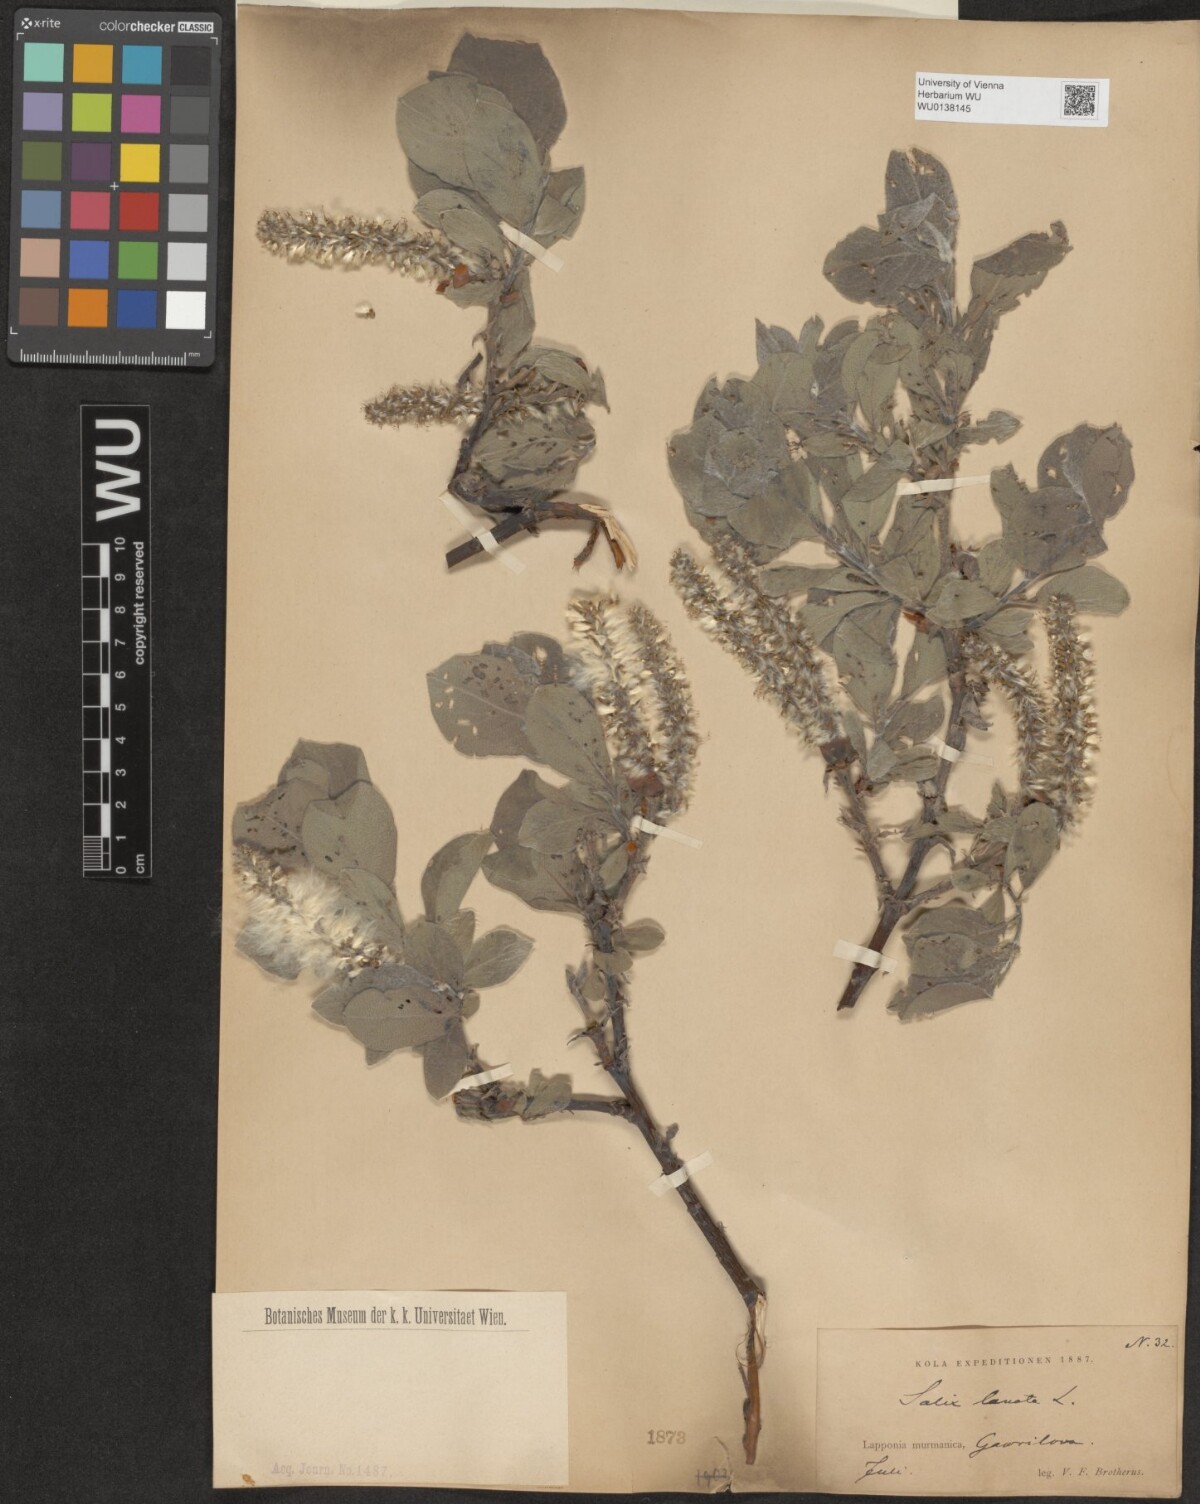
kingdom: Plantae
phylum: Tracheophyta
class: Magnoliopsida
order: Malpighiales
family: Salicaceae
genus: Salix
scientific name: Salix lanata
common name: Woolly willow
